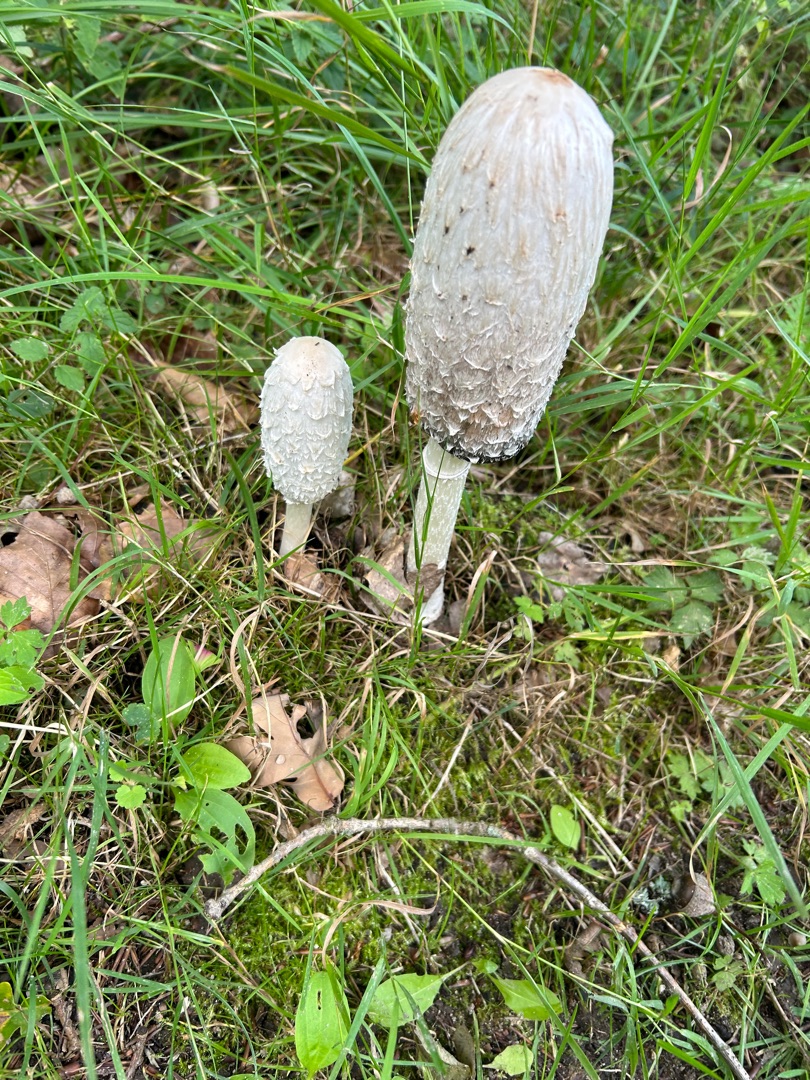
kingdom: Fungi
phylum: Basidiomycota
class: Agaricomycetes
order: Agaricales
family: Agaricaceae
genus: Coprinus
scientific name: Coprinus comatus
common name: Stor parykhat
